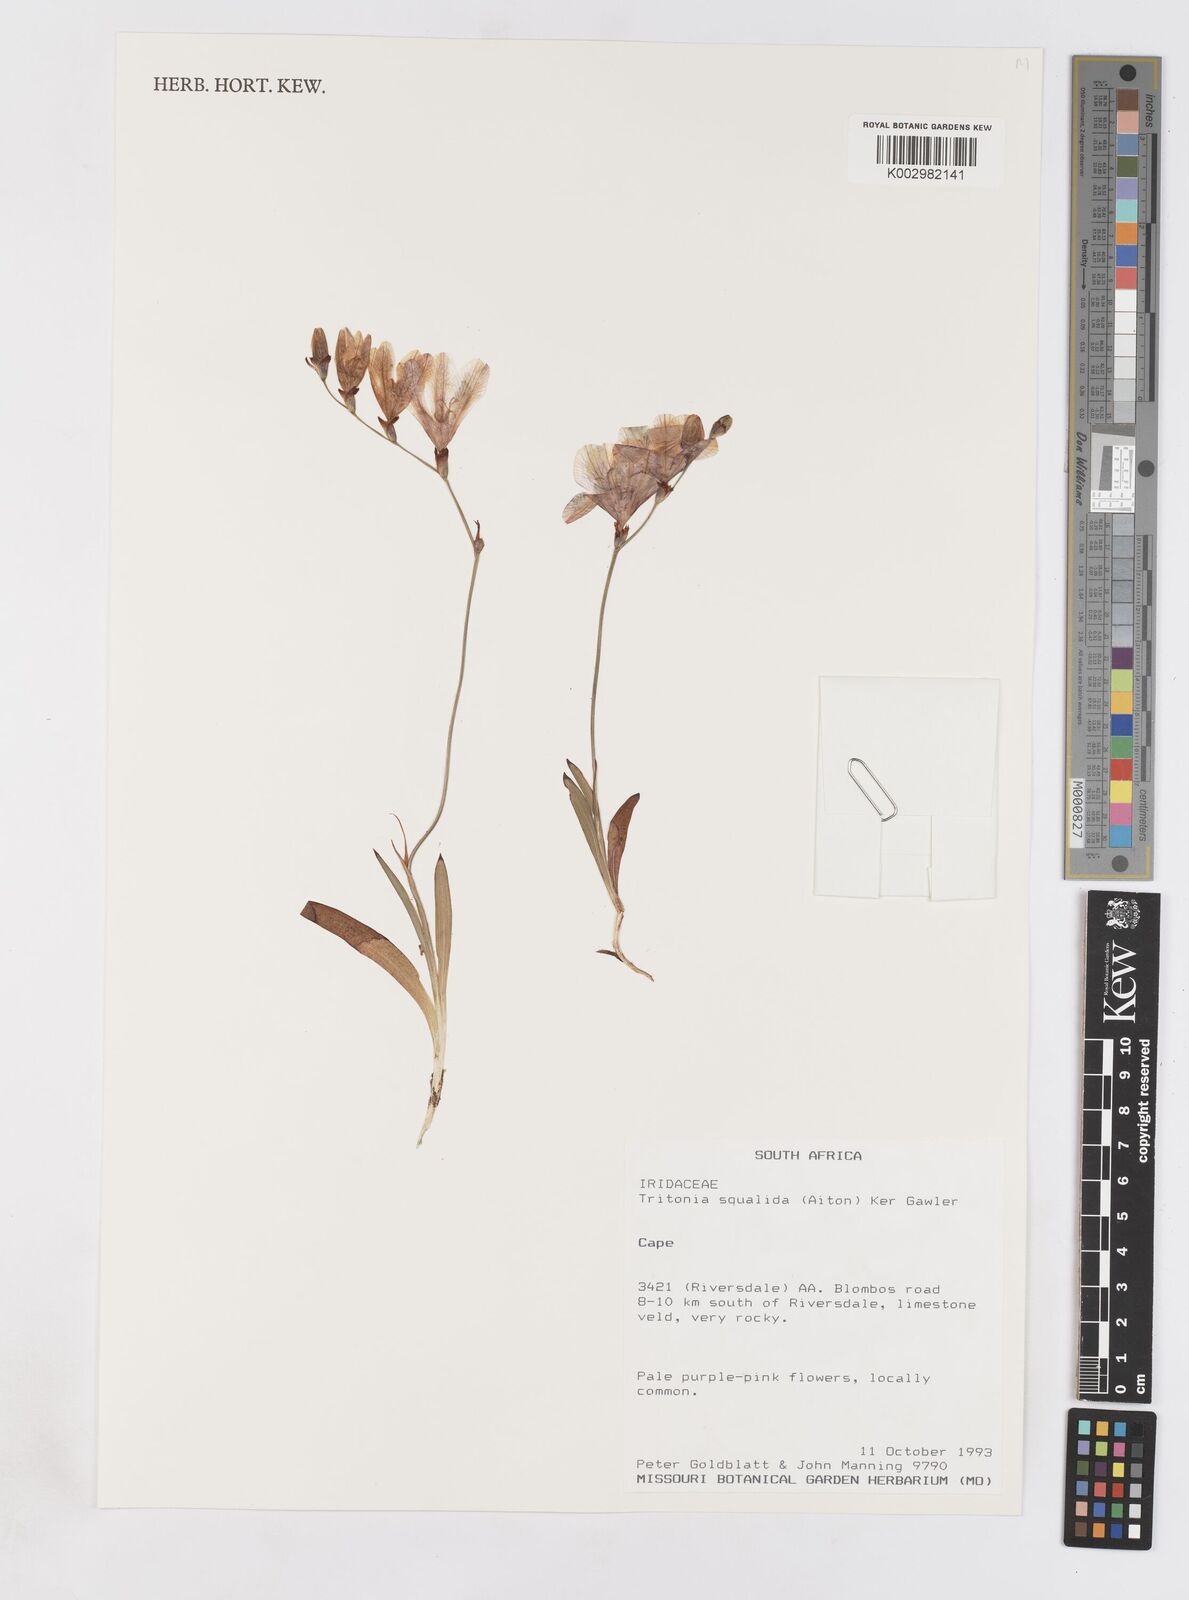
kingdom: Plantae
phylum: Tracheophyta
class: Liliopsida
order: Asparagales
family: Iridaceae
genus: Tritonia
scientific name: Tritonia squalida
